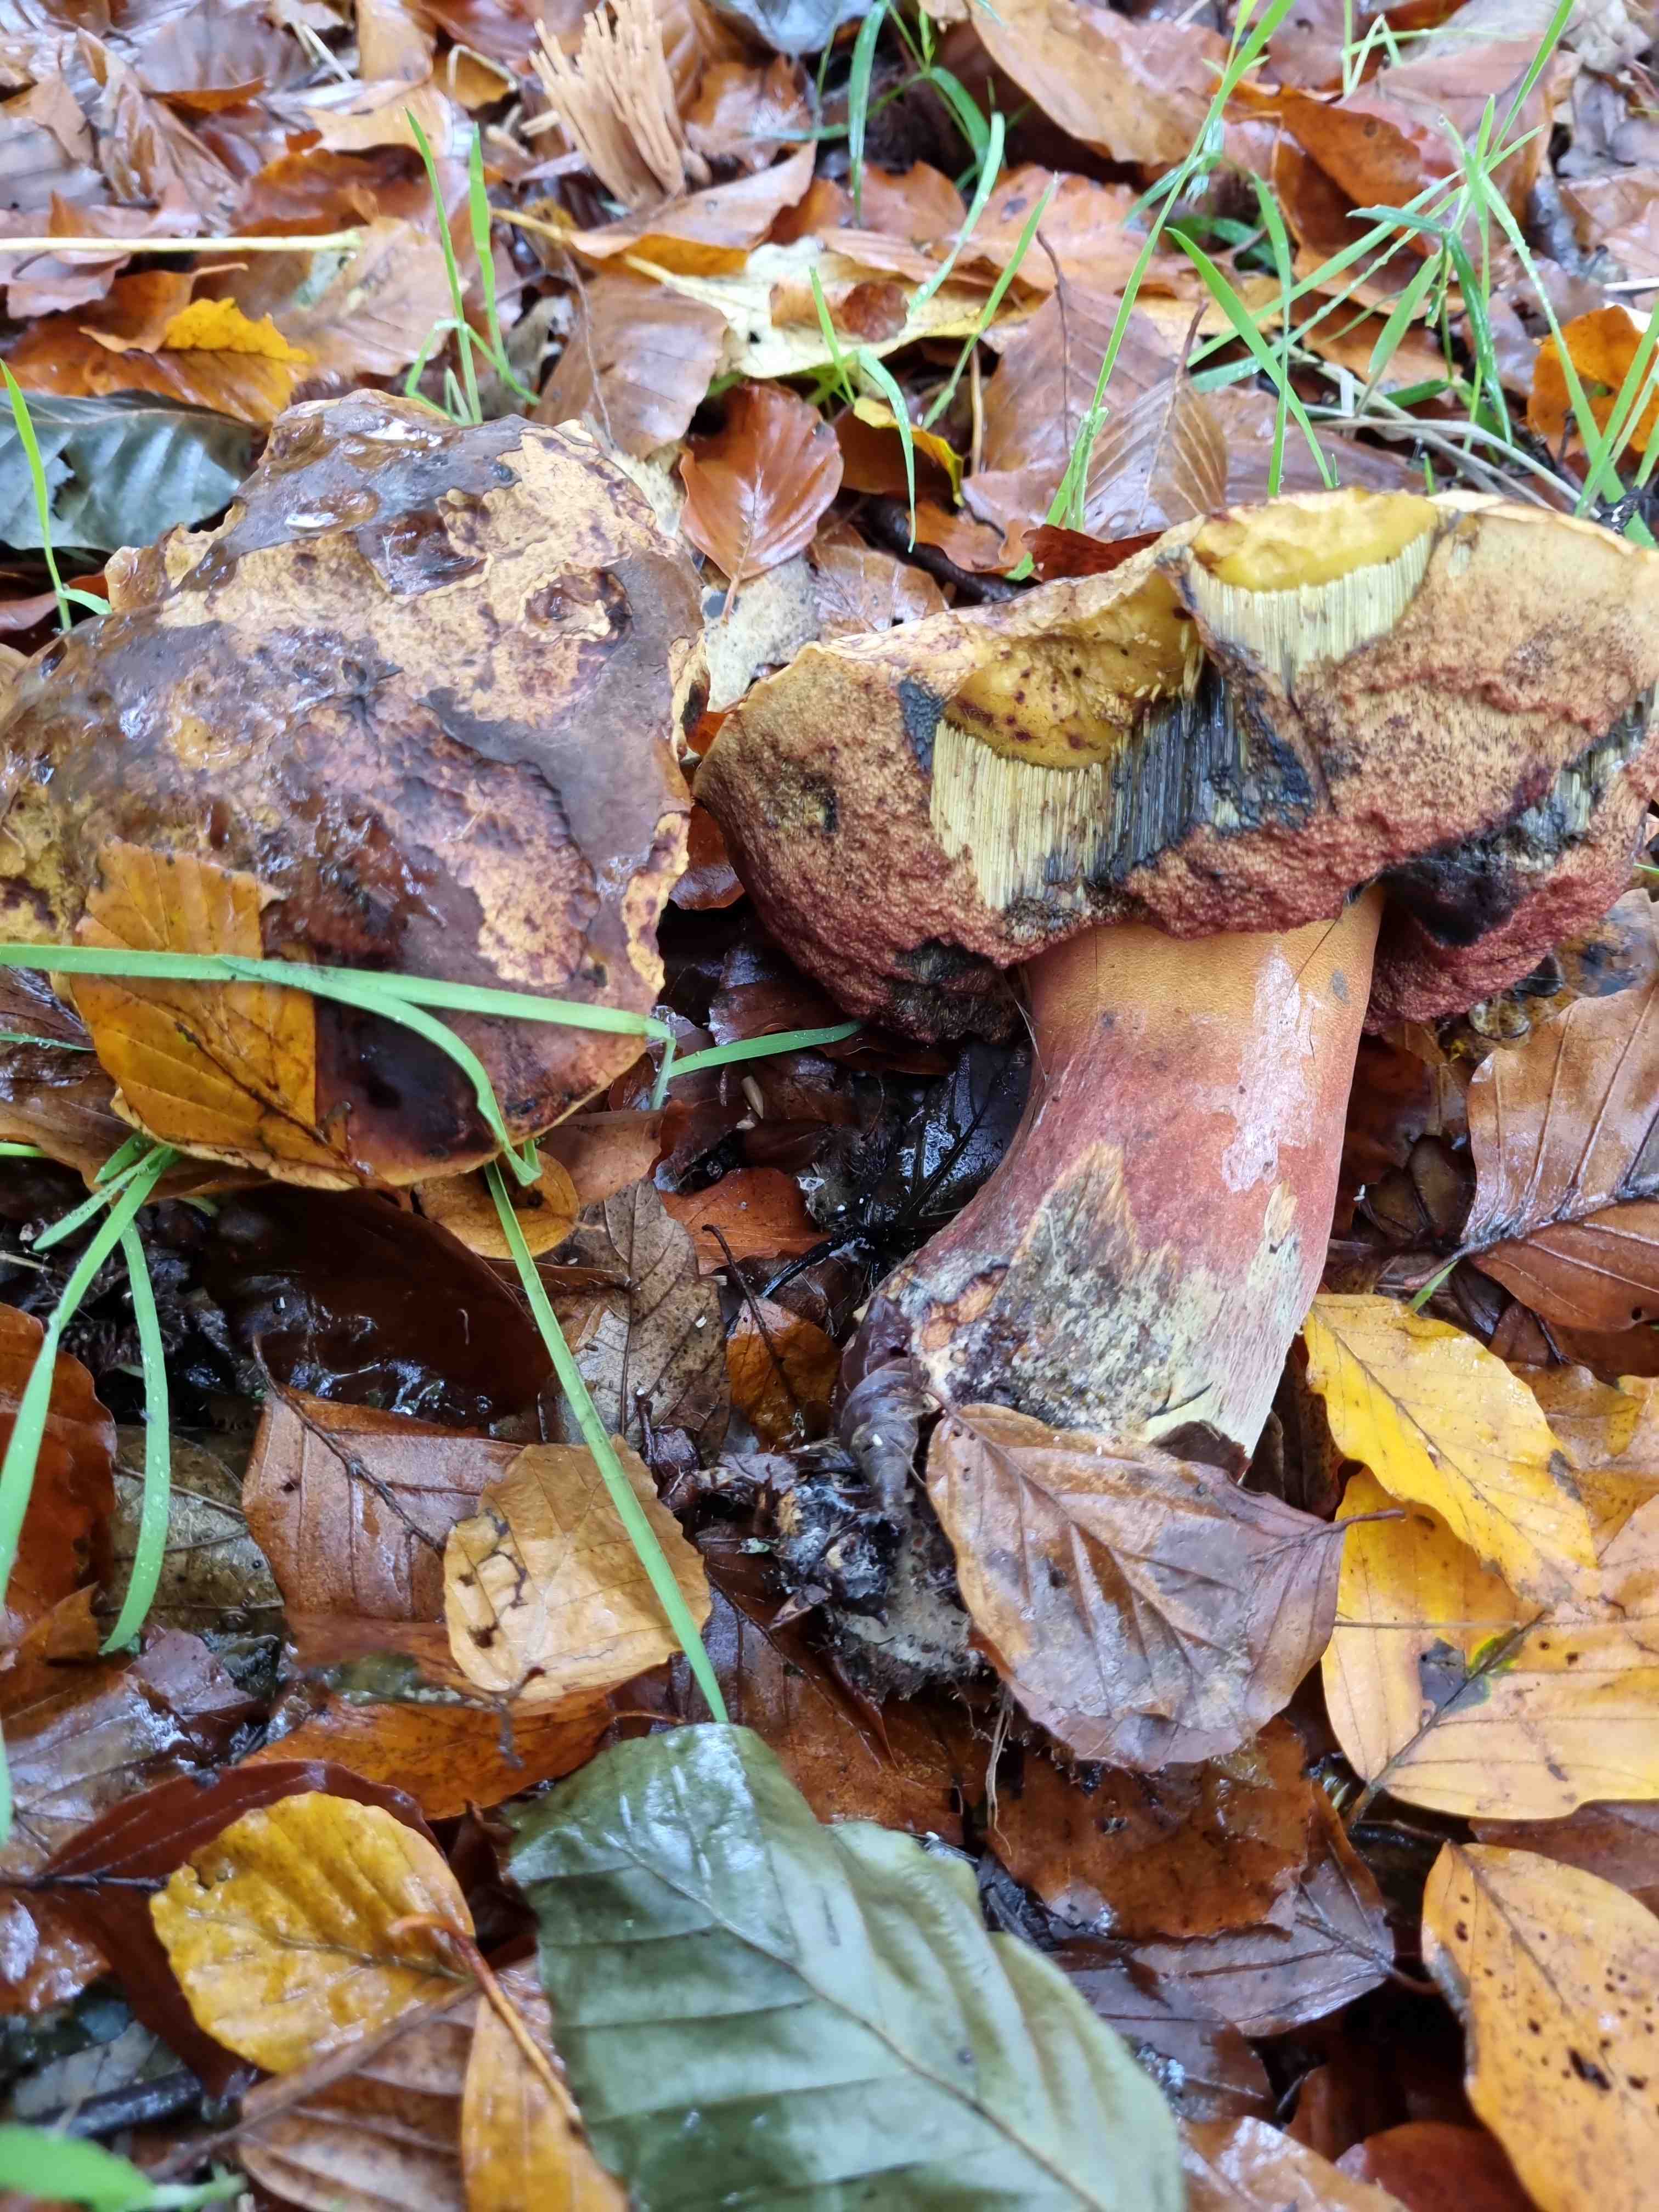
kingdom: Fungi
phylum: Basidiomycota
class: Agaricomycetes
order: Boletales
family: Boletaceae
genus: Neoboletus
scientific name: Neoboletus erythropus
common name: punktstokket indigorørhat
